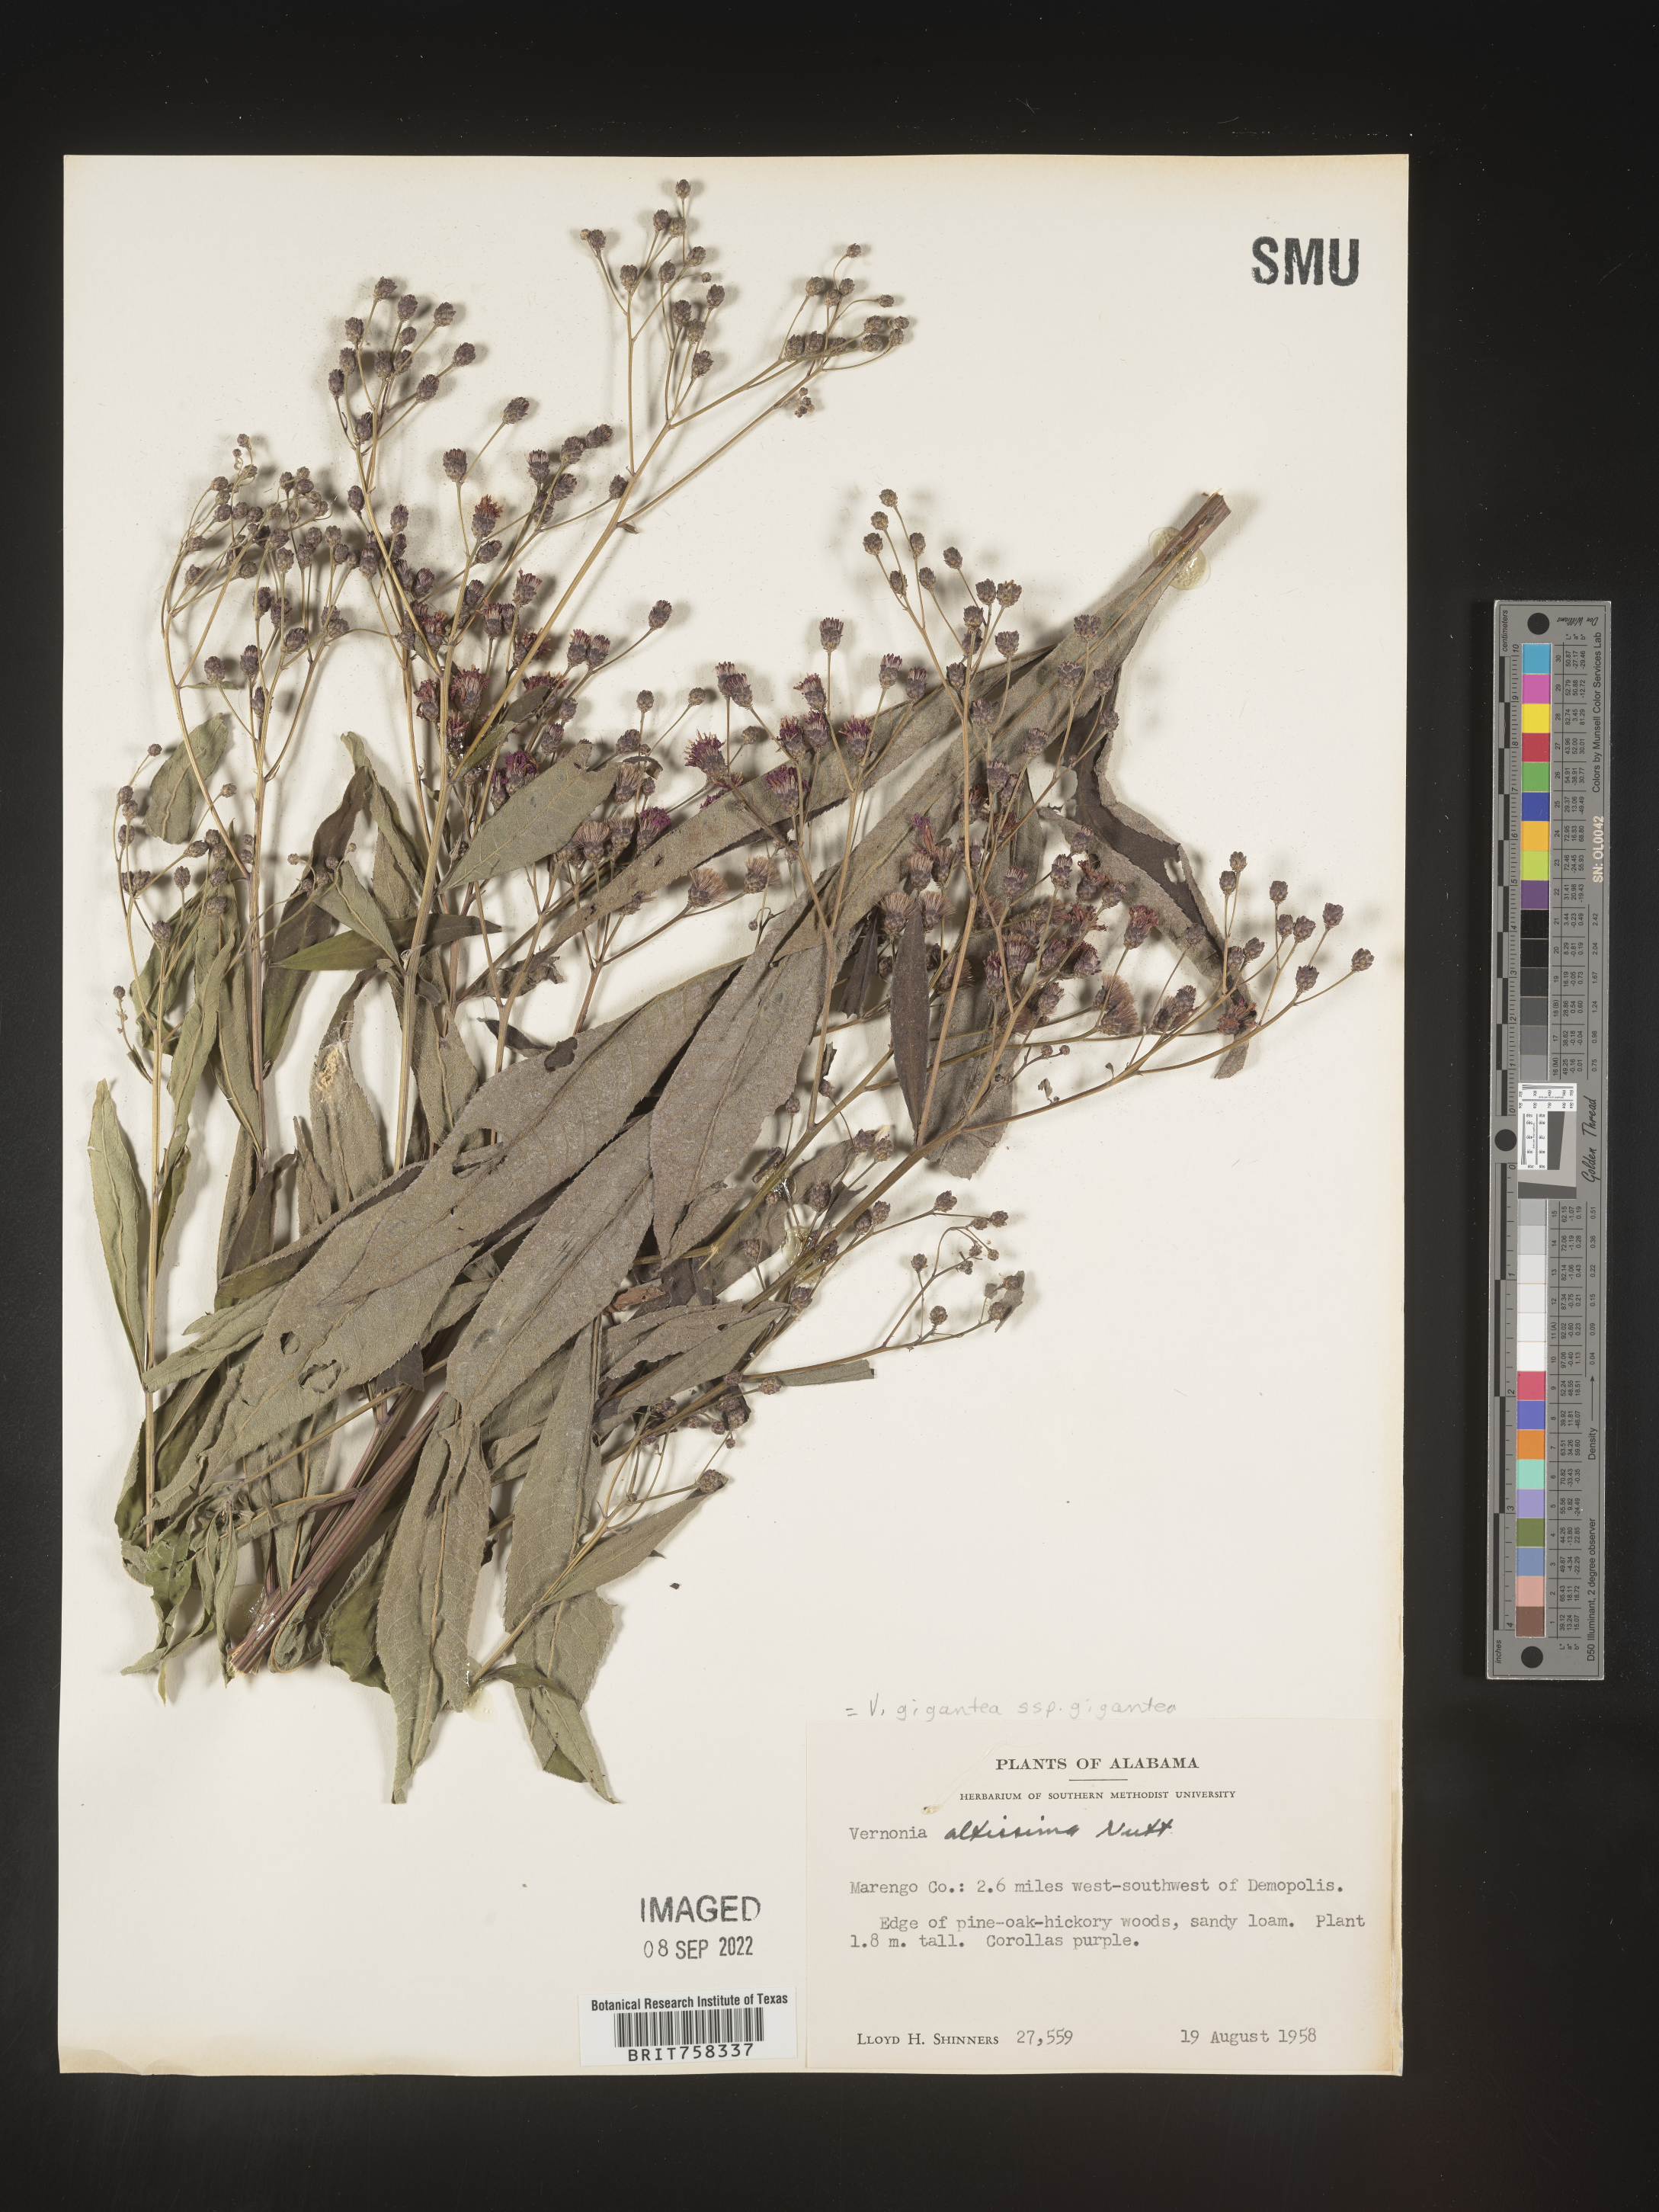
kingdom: Plantae
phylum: Tracheophyta
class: Magnoliopsida
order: Asterales
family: Asteraceae
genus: Vernonia
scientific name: Vernonia gigantea
